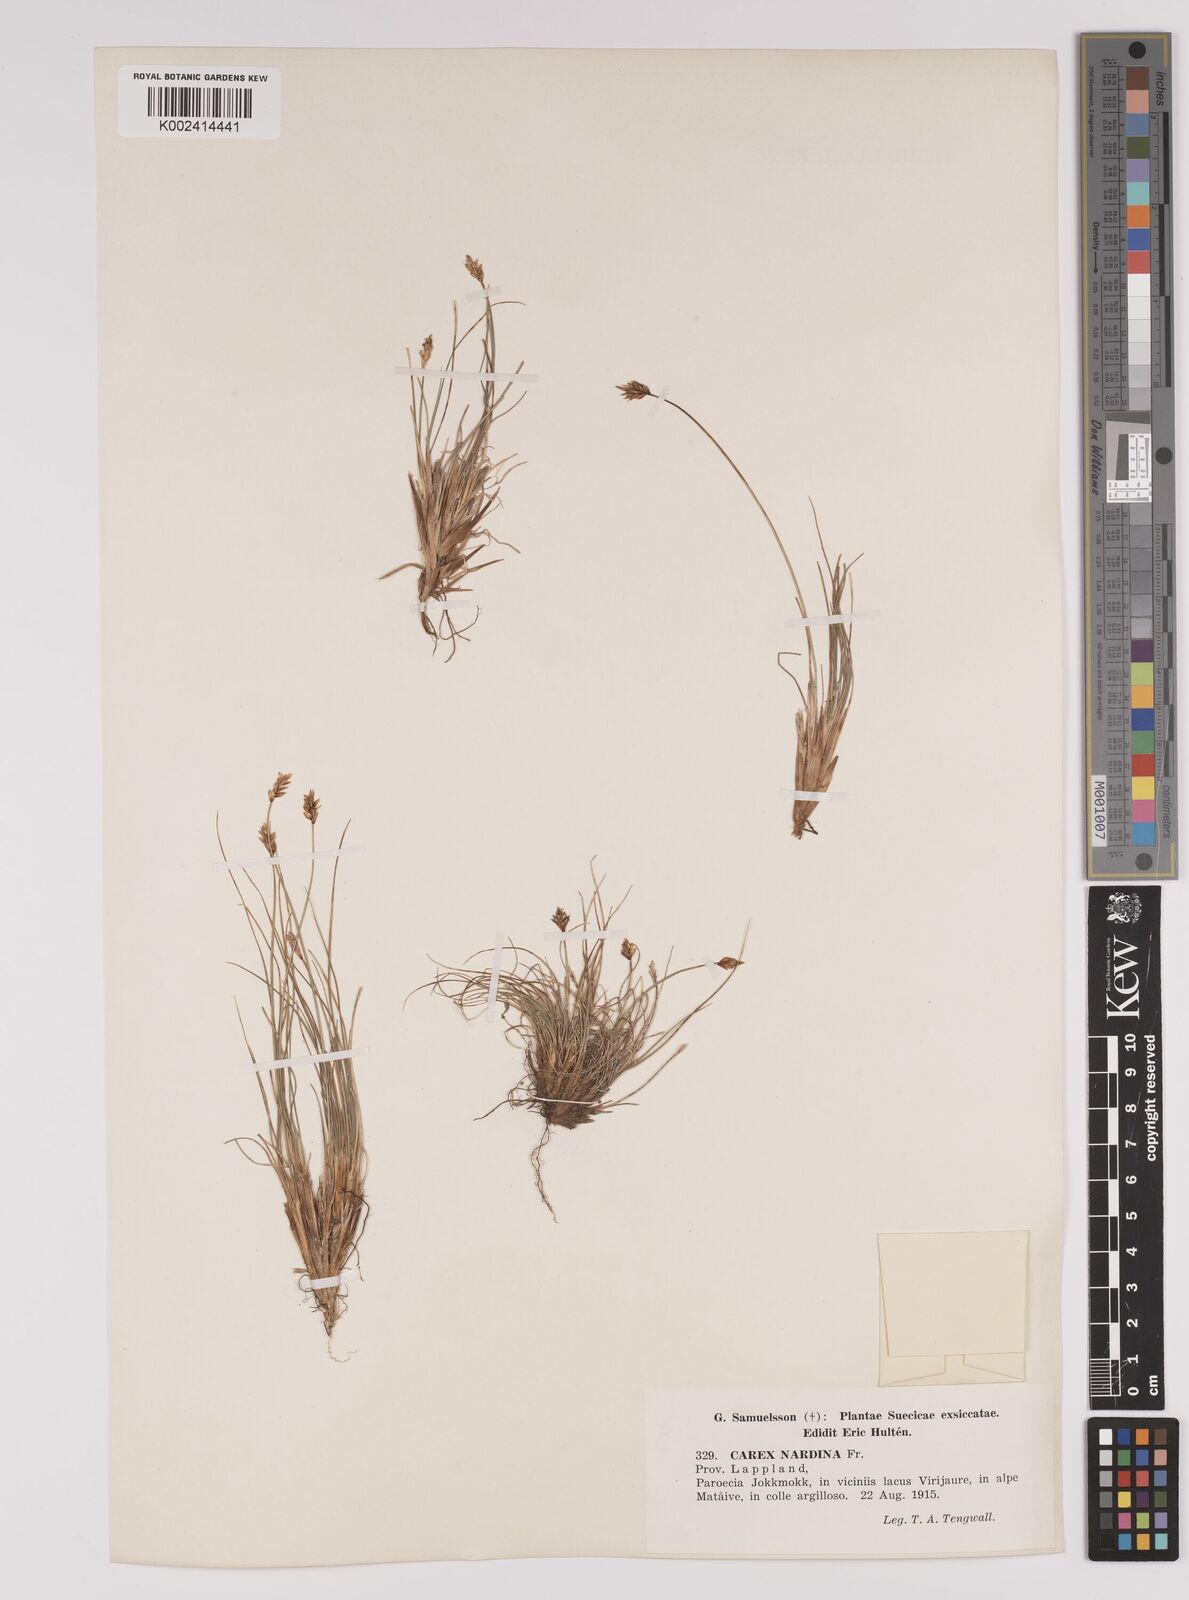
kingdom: Plantae
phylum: Tracheophyta
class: Liliopsida
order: Poales
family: Cyperaceae
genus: Carex
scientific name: Carex nardina
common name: Nard sedge
